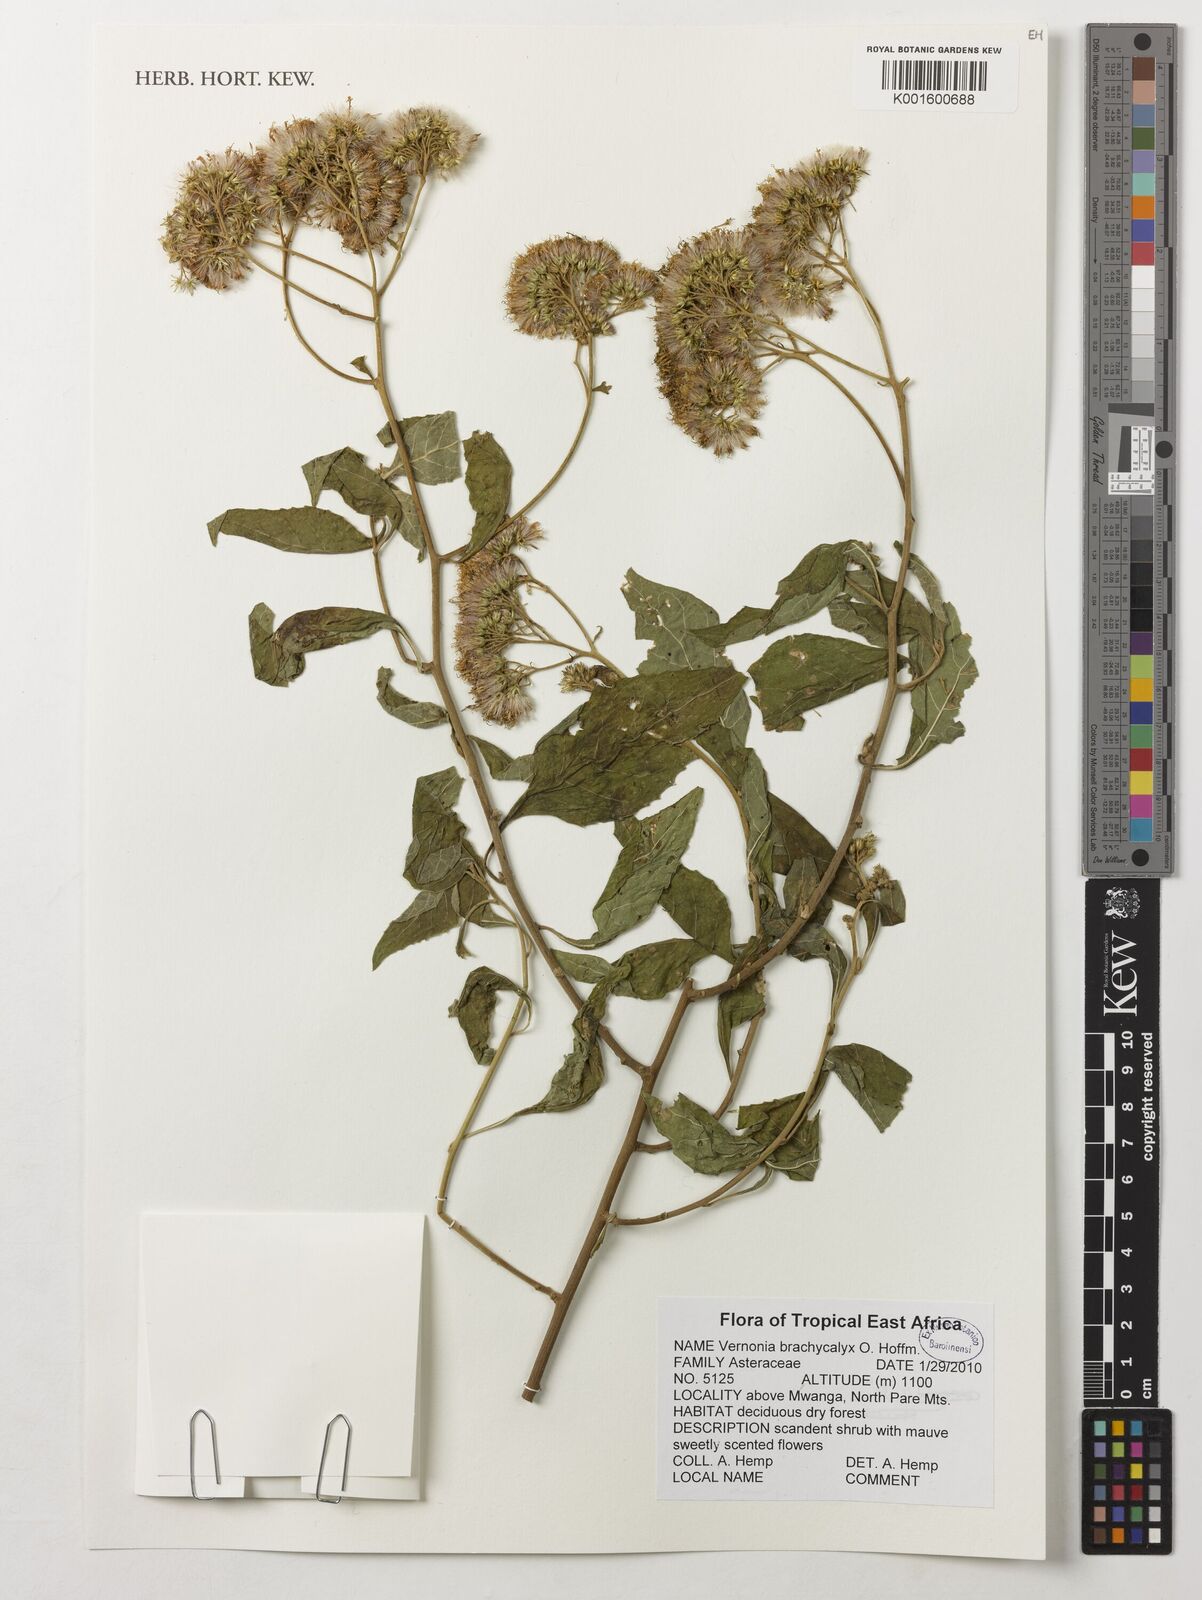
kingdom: Plantae
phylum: Tracheophyta
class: Magnoliopsida
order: Asterales
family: Asteraceae
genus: Hoffmannanthus
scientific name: Hoffmannanthus abbotianus
